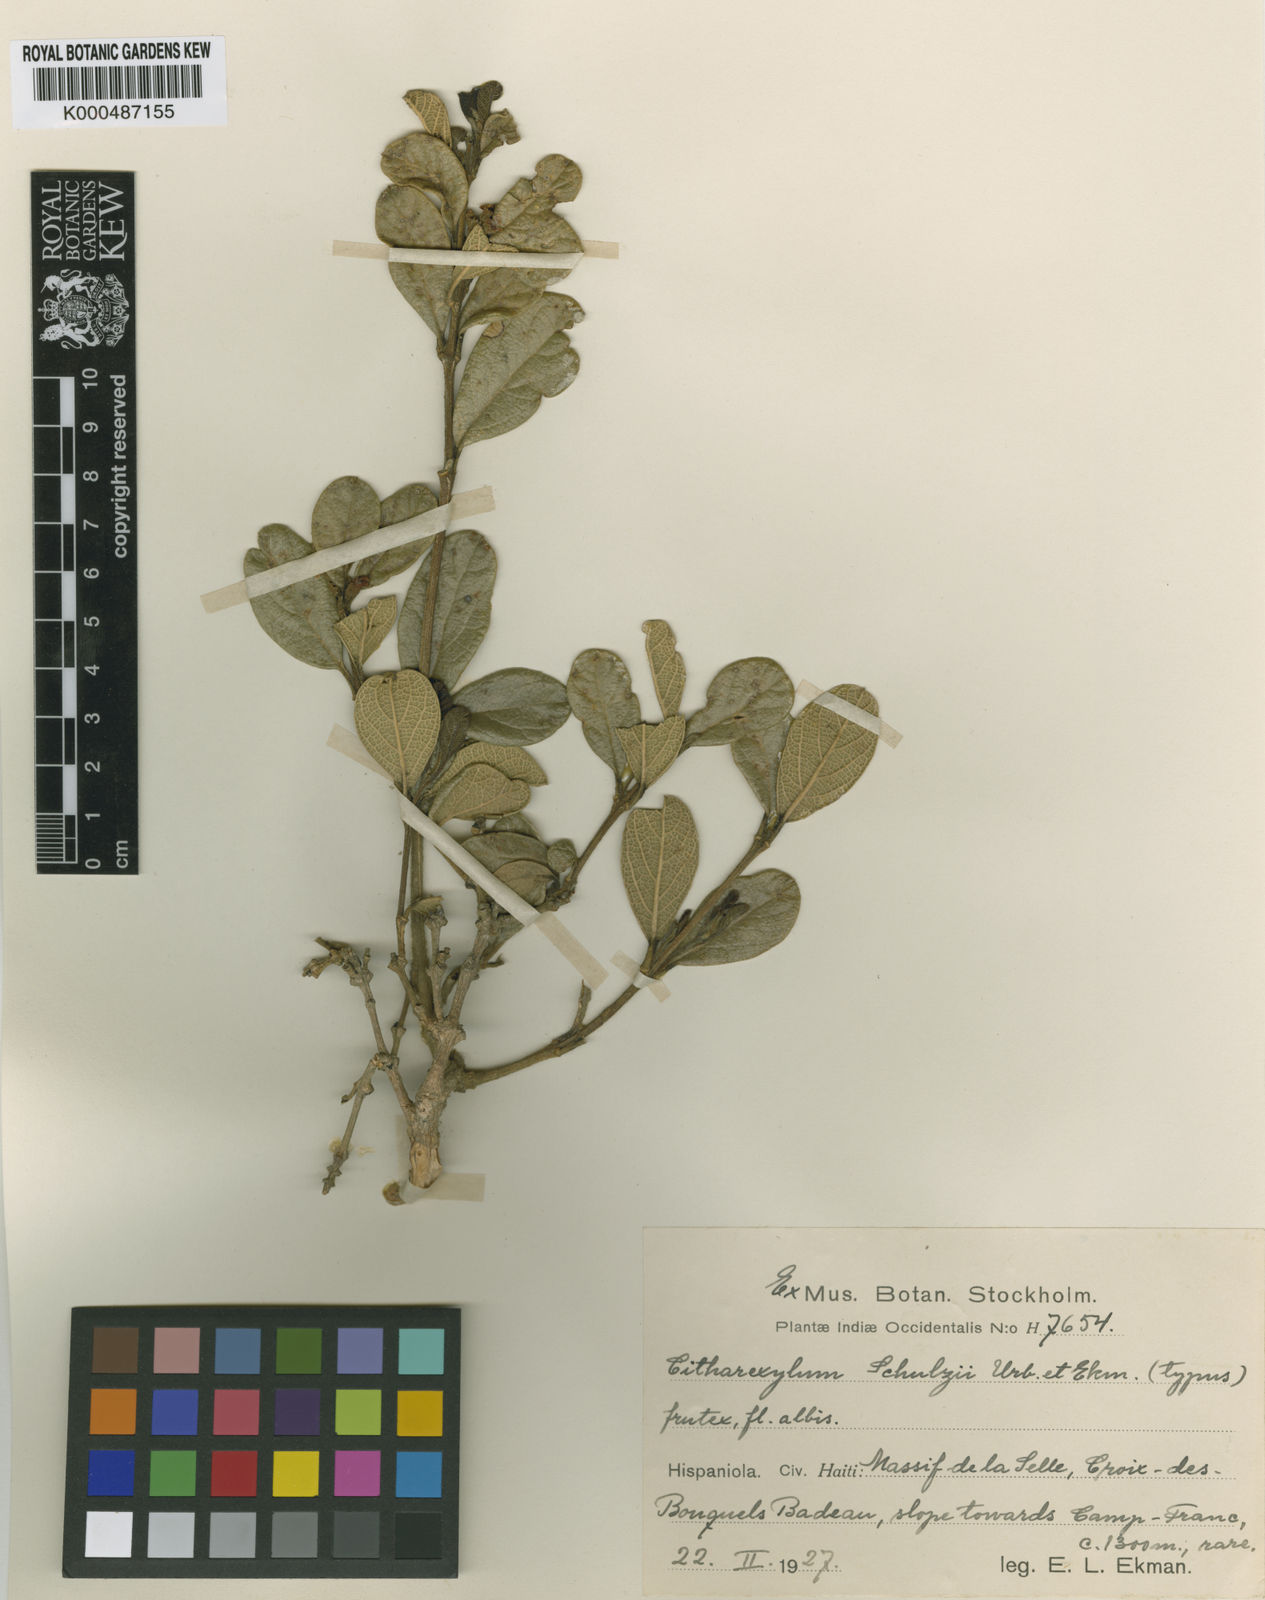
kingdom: Plantae
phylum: Tracheophyta
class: Magnoliopsida
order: Lamiales
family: Verbenaceae
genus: Citharexylum
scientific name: Citharexylum schulzii
